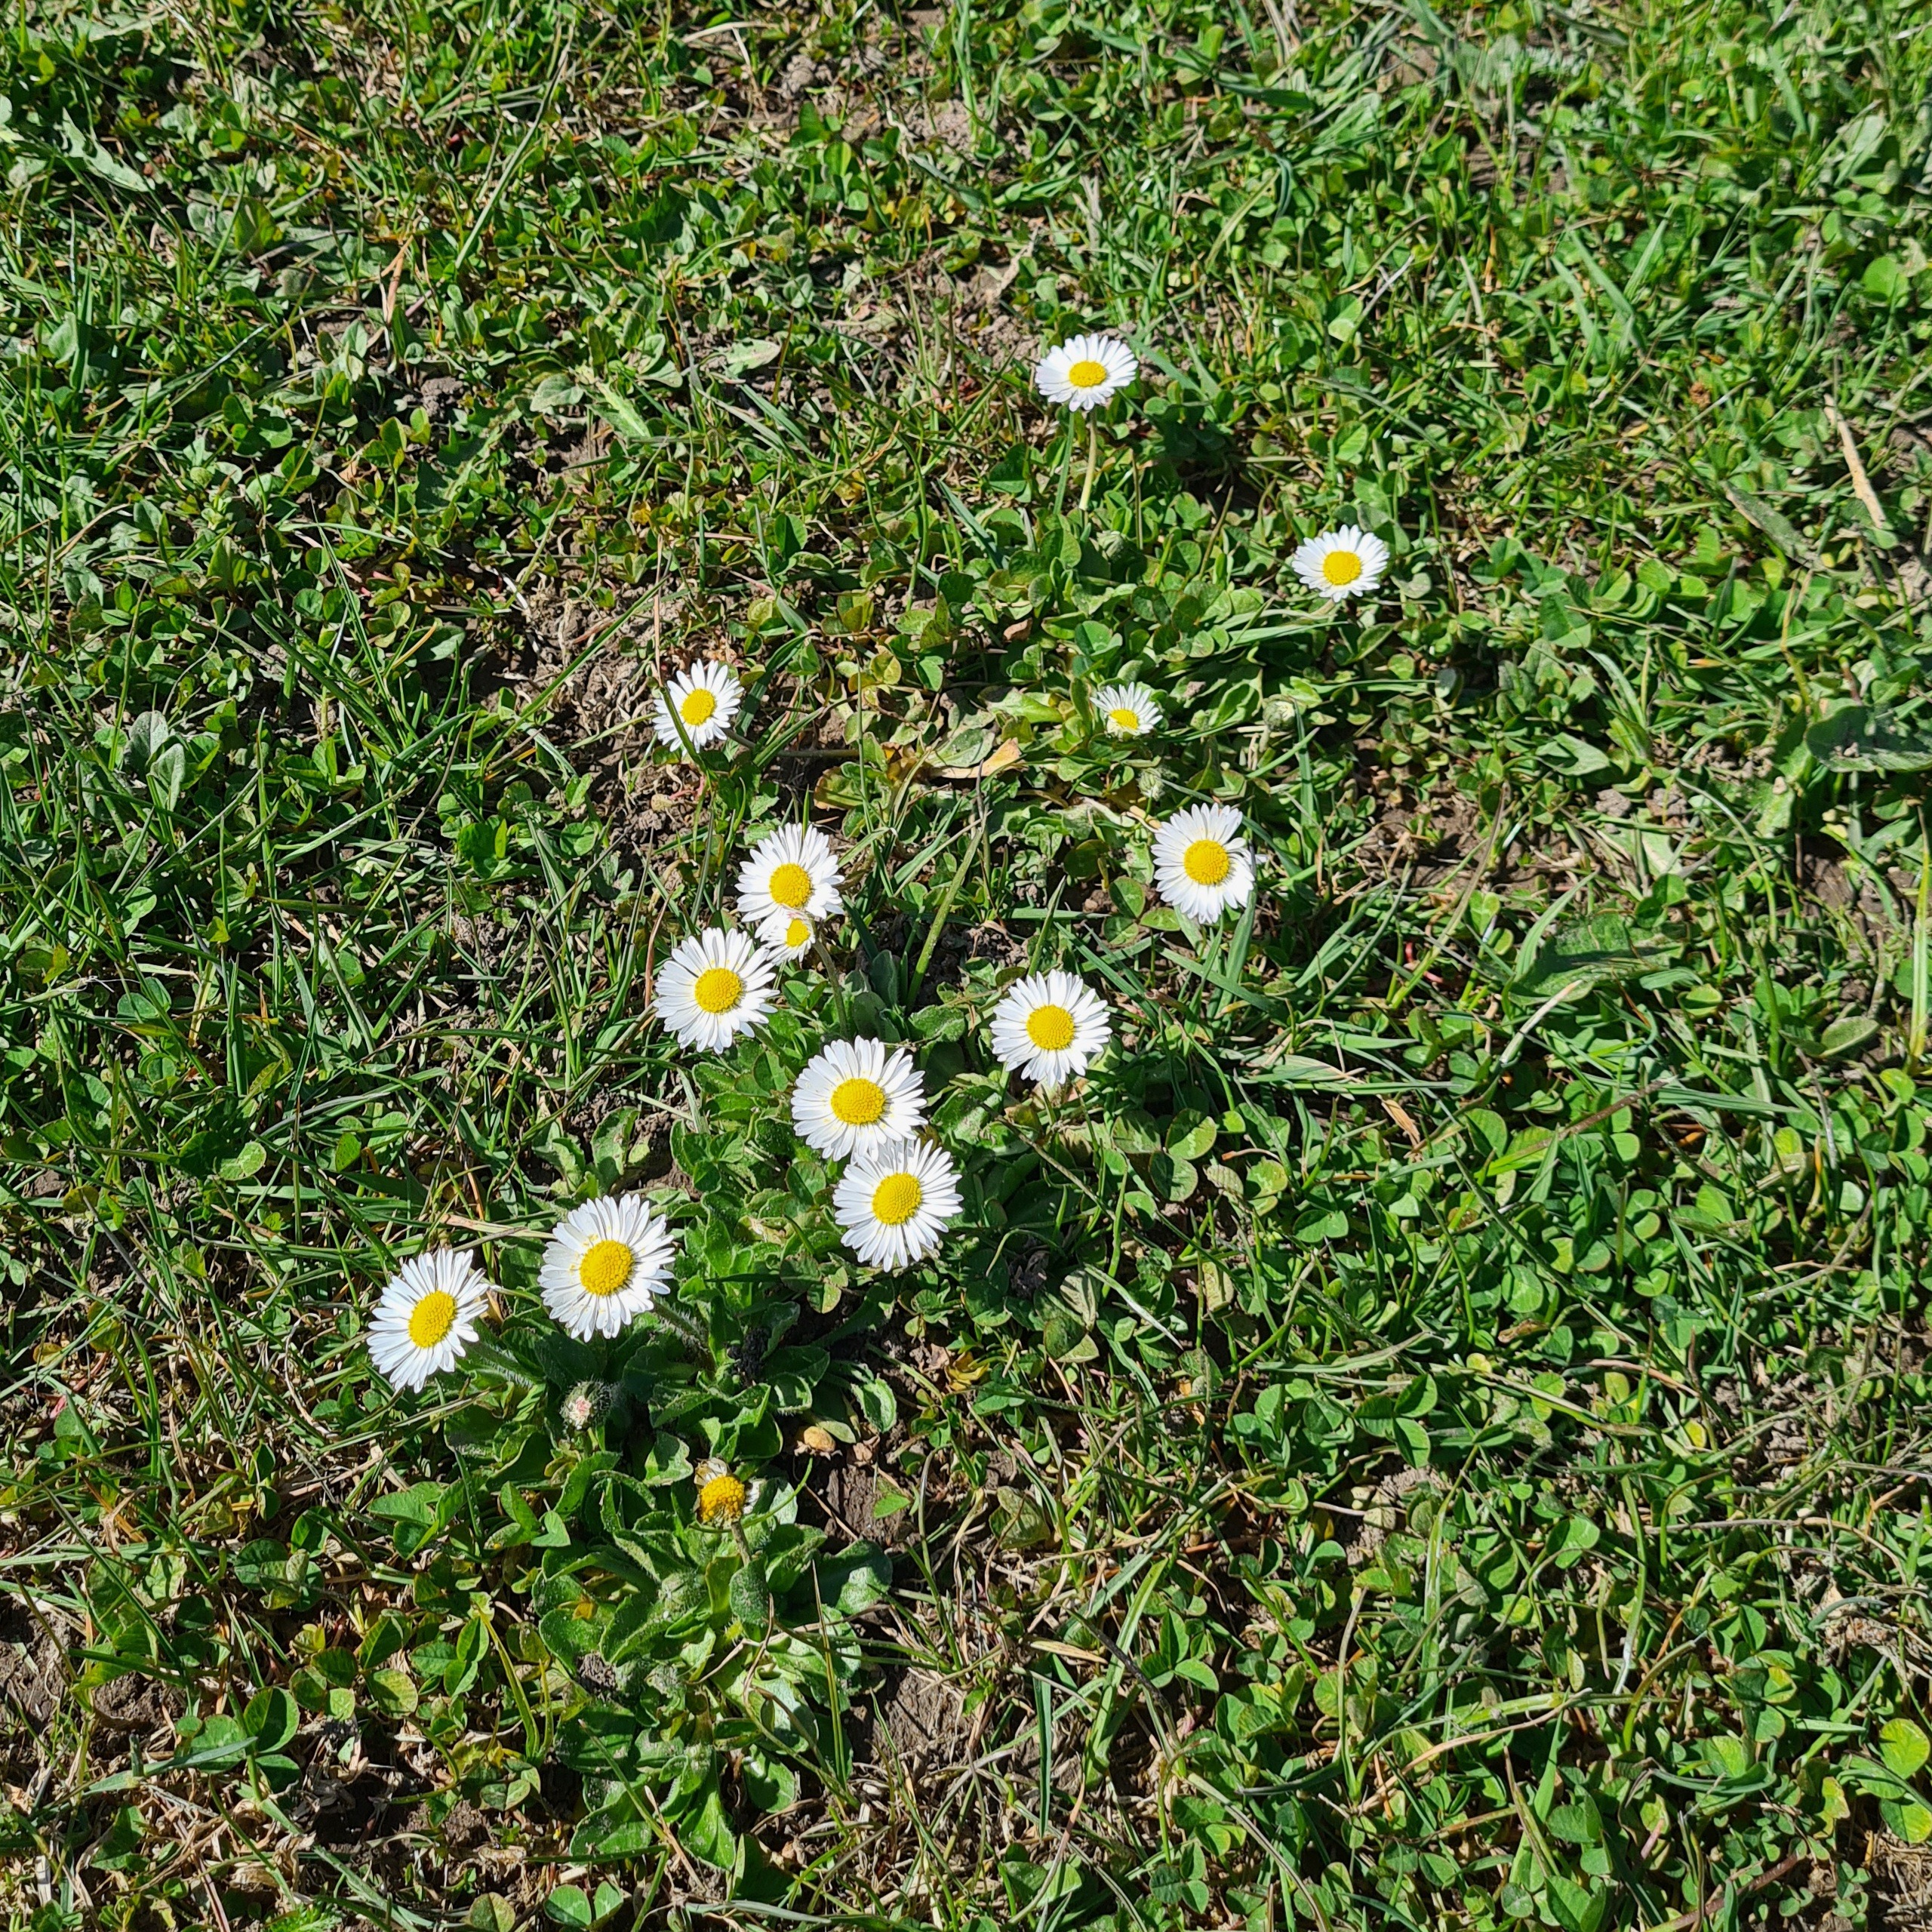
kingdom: Plantae
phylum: Tracheophyta
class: Magnoliopsida
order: Asterales
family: Asteraceae
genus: Bellis
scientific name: Bellis perennis
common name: Tusindfryd
